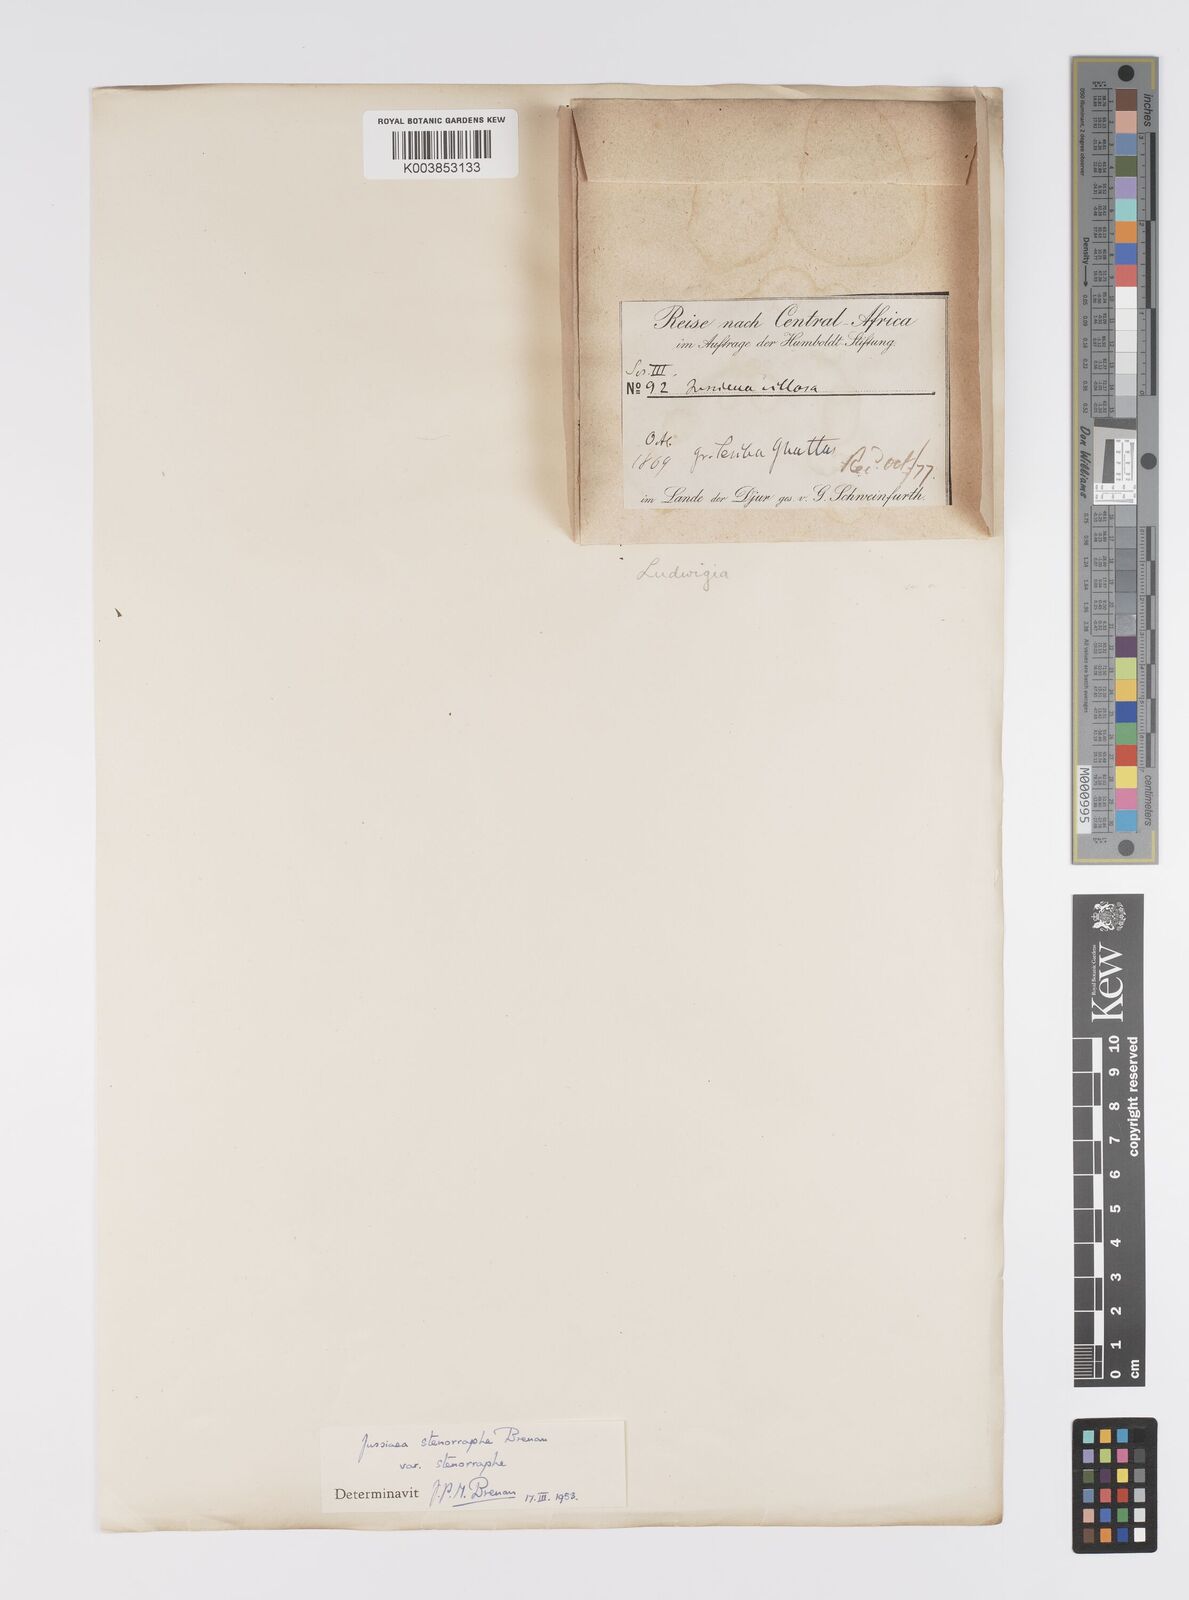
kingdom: Plantae
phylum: Tracheophyta
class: Magnoliopsida
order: Myrtales
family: Onagraceae
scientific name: Onagraceae
